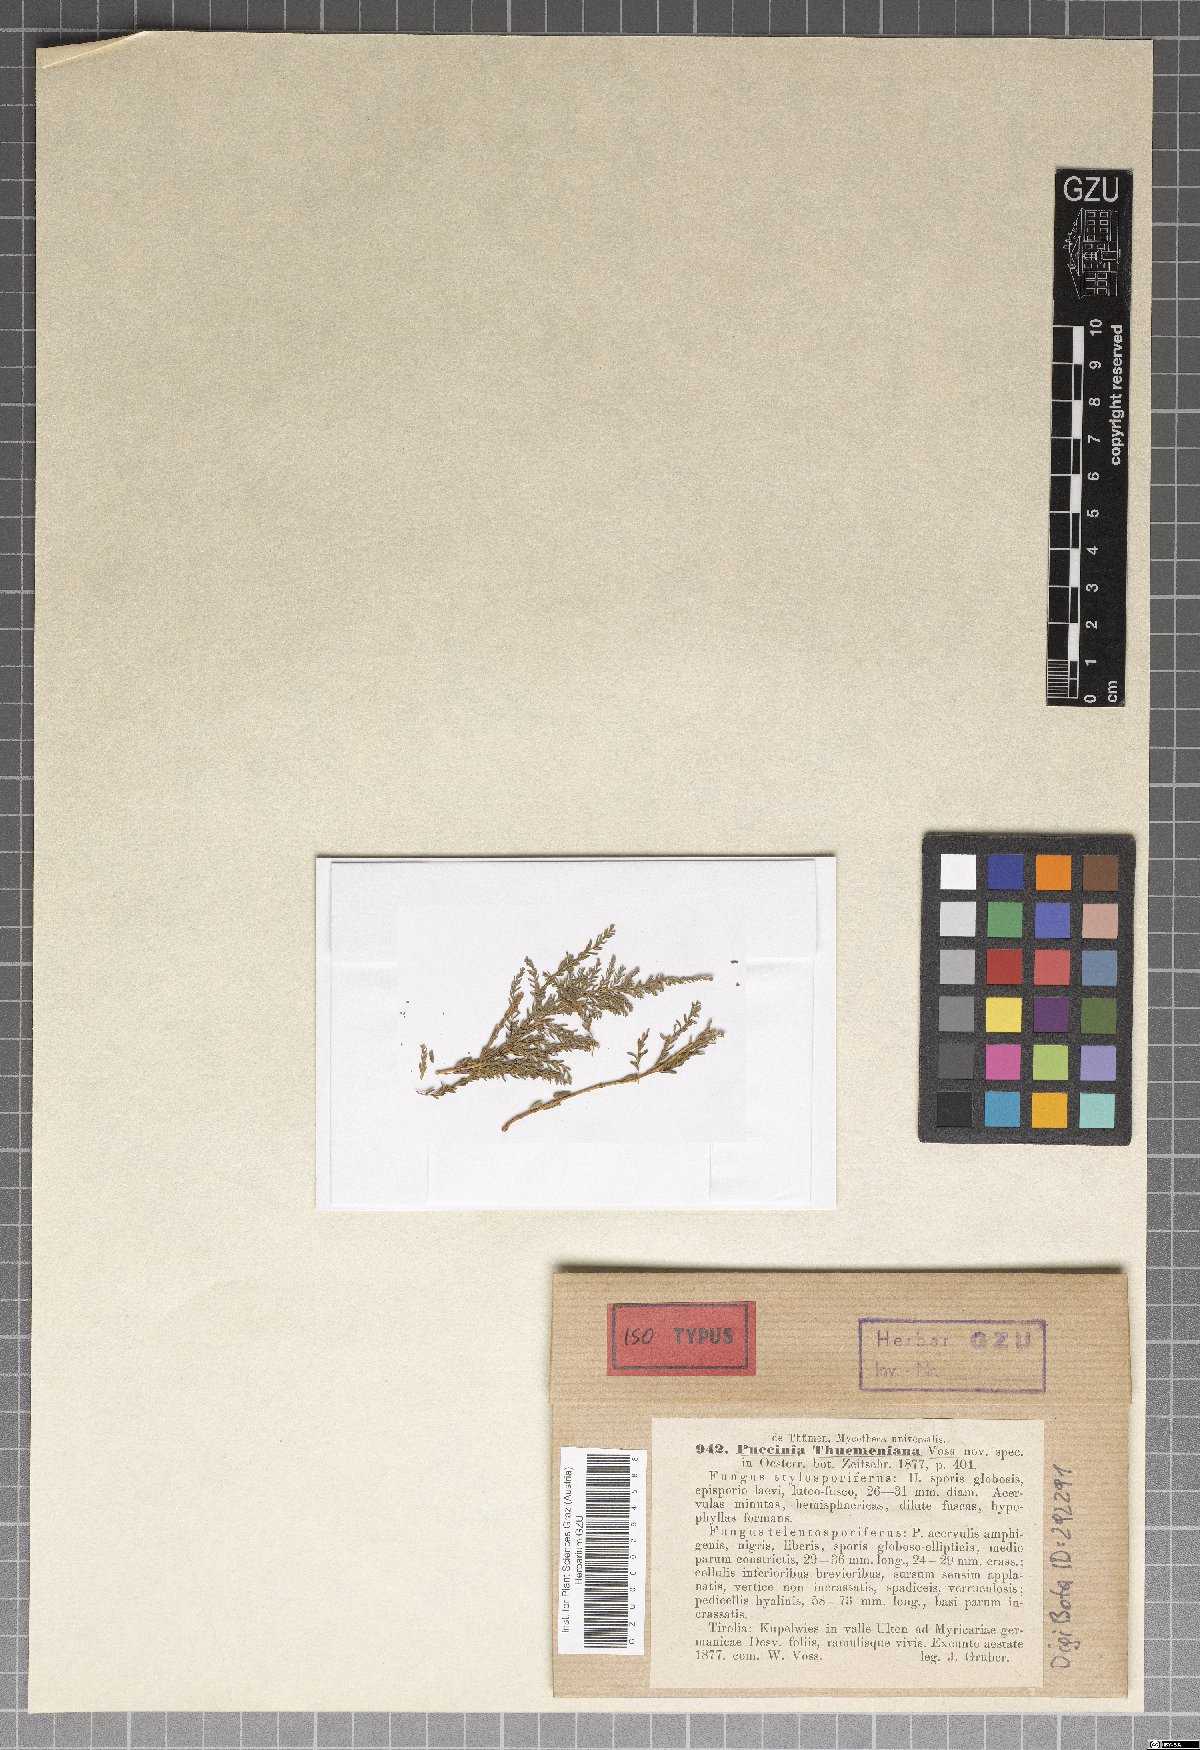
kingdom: Fungi
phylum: Basidiomycota
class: Pucciniomycetes
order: Pucciniales
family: Pucciniaceae
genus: Puccinia
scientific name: Puccinia thuemeniana
